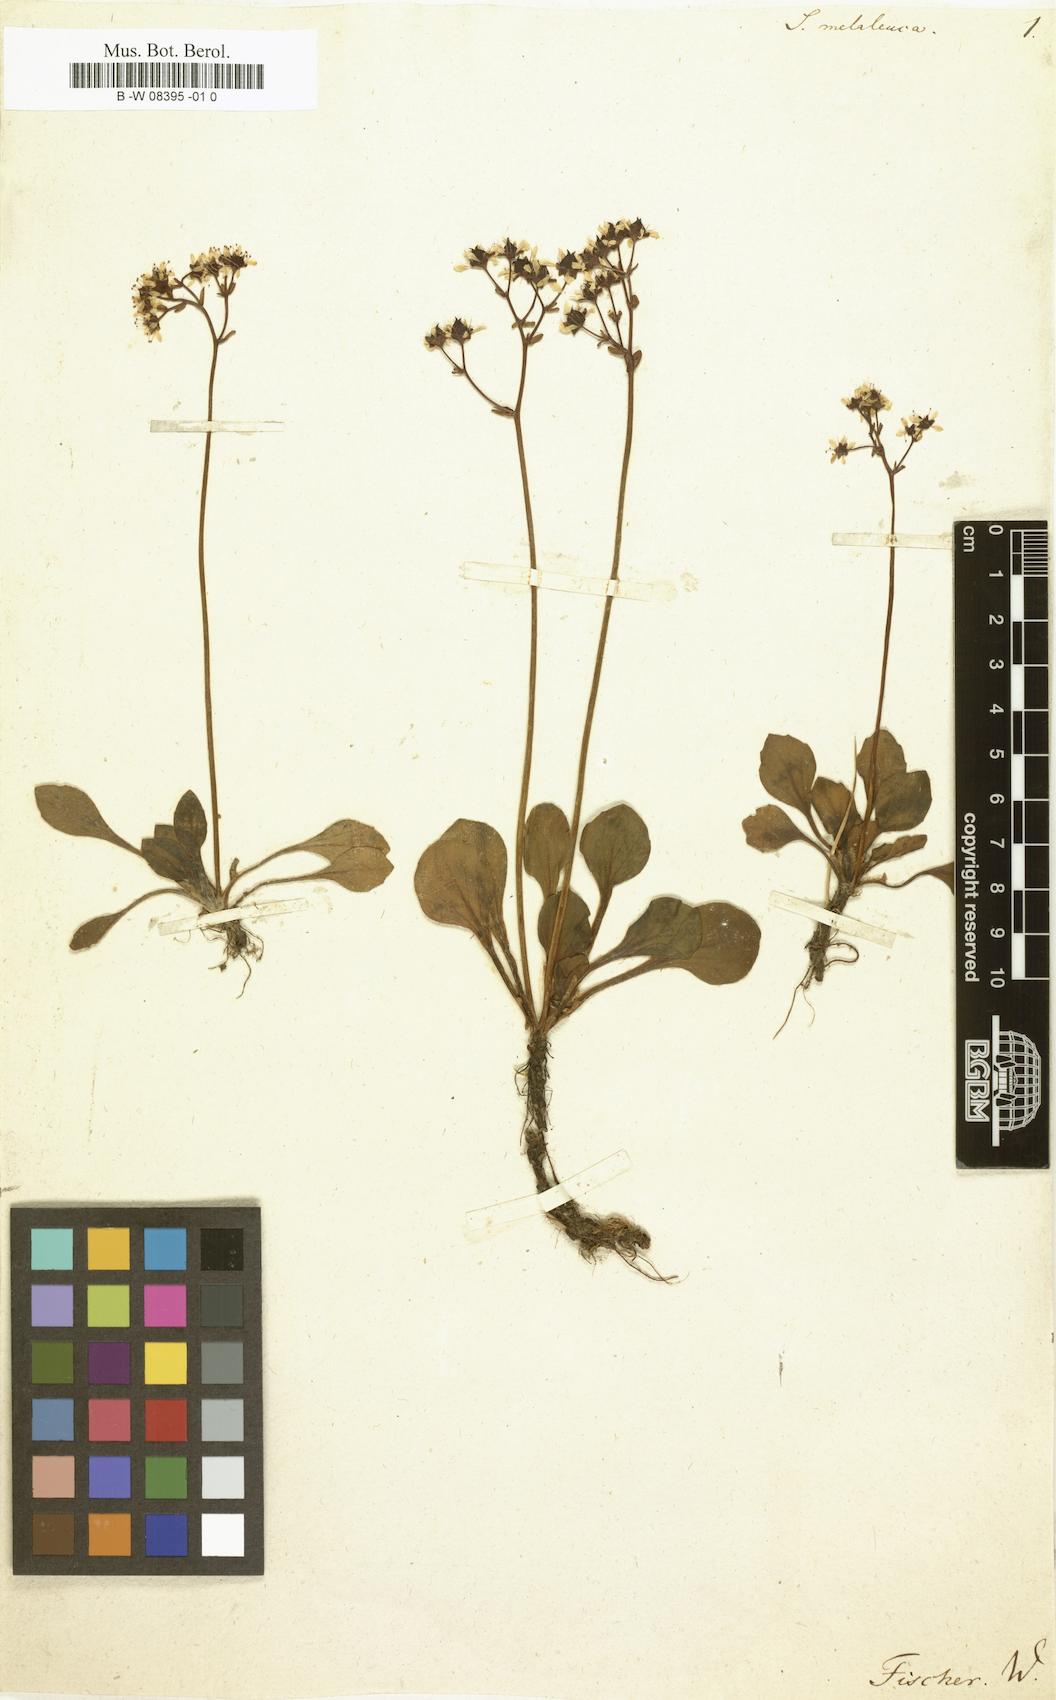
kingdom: Plantae
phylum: Tracheophyta
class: Magnoliopsida
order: Saxifragales
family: Saxifragaceae
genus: Micranthes
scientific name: Micranthes melaleuca
